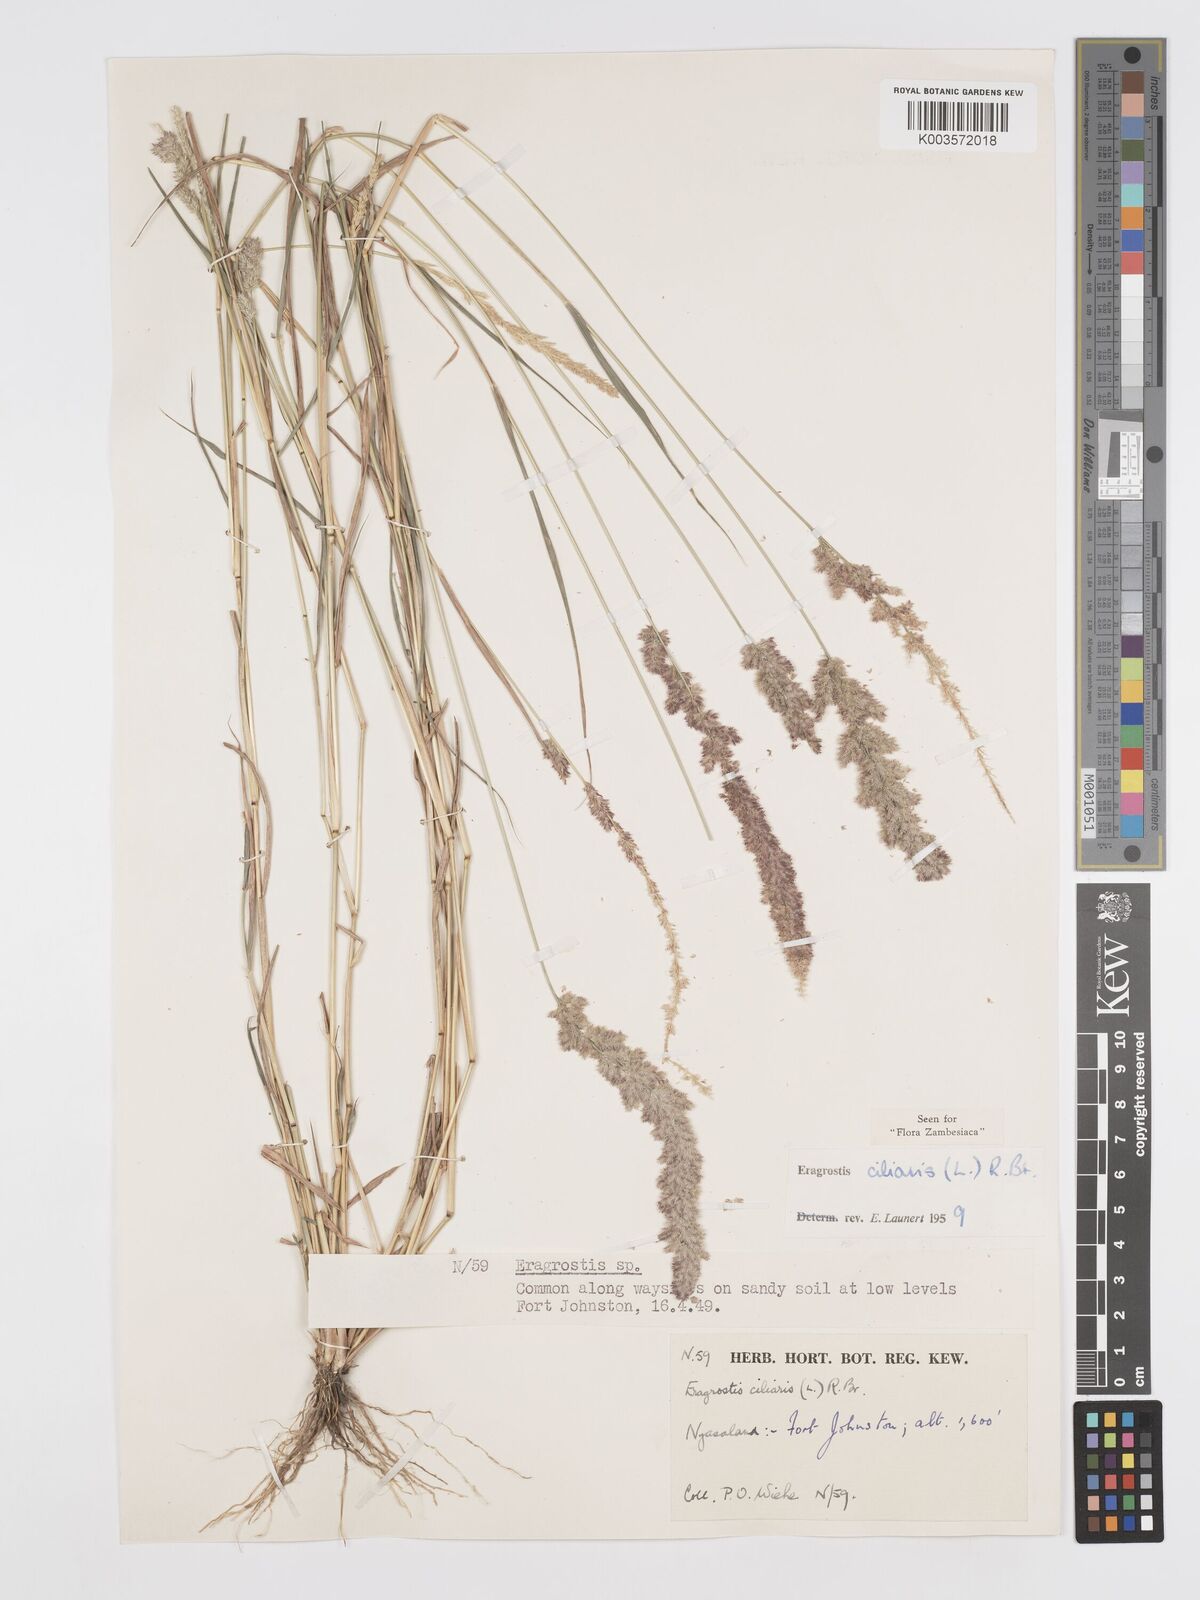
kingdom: Plantae
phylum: Tracheophyta
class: Liliopsida
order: Poales
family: Poaceae
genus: Eragrostis
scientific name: Eragrostis ciliaris
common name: Gophertail lovegrass
